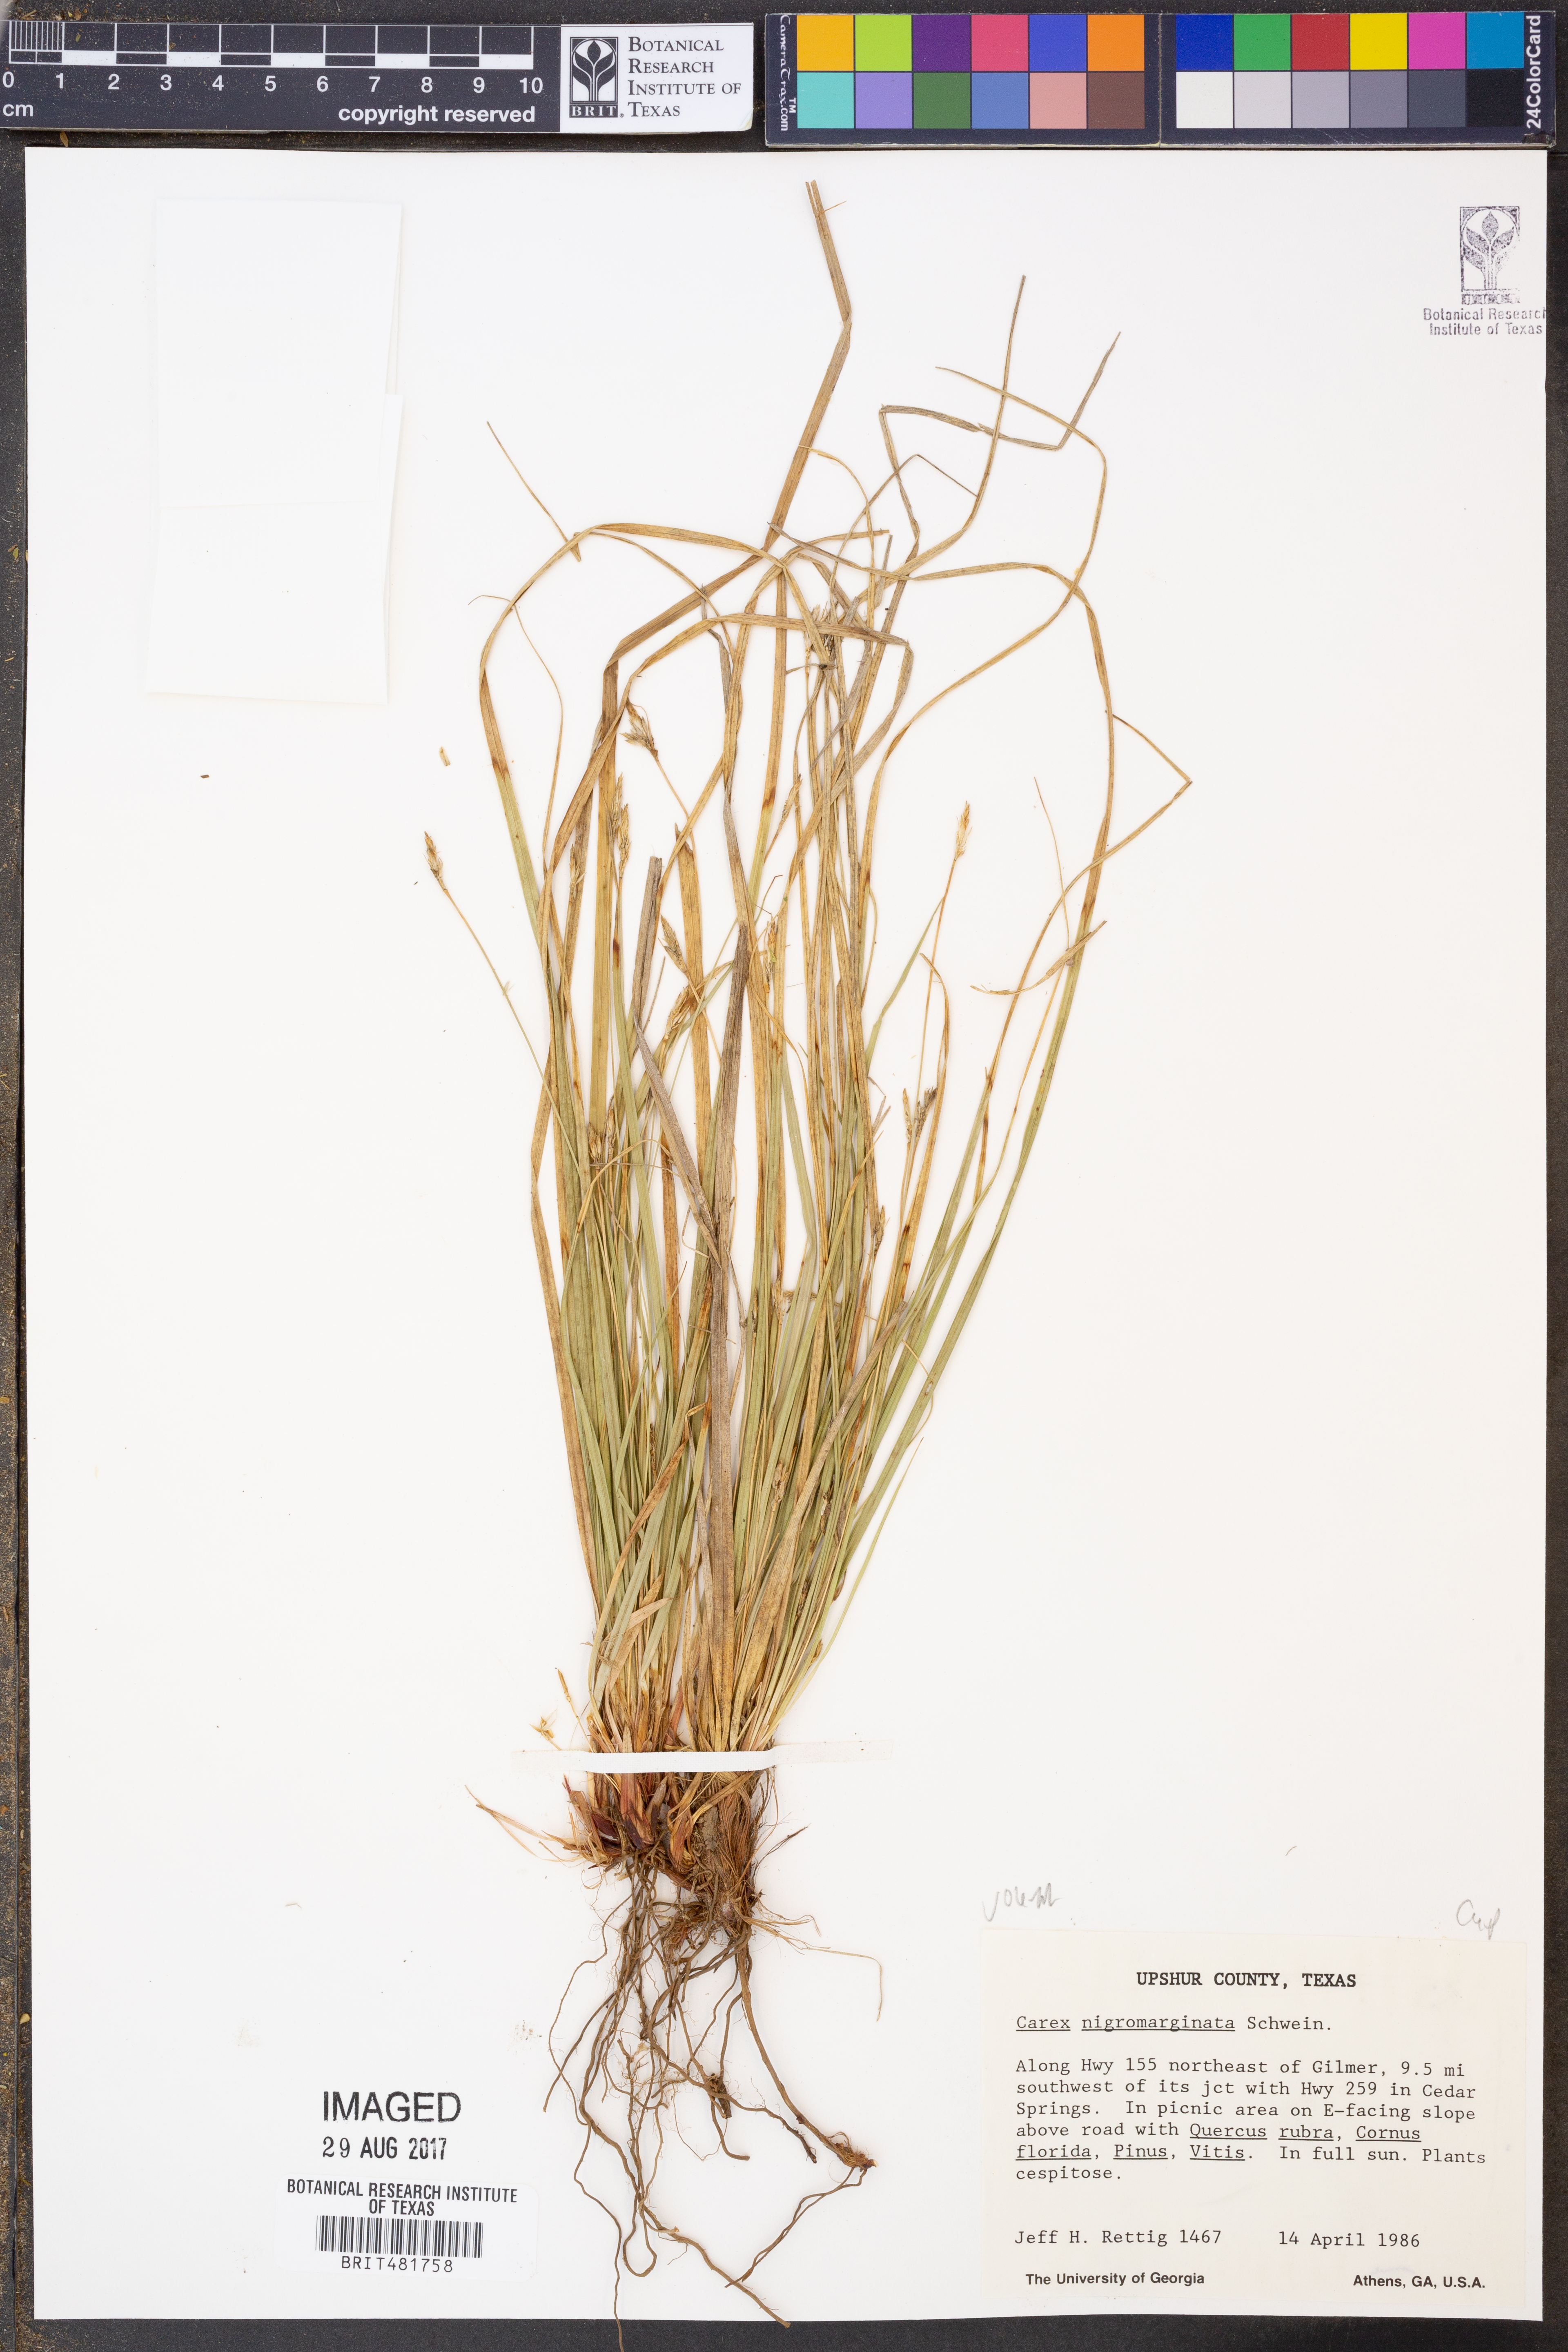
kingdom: Plantae
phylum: Tracheophyta
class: Liliopsida
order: Poales
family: Cyperaceae
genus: Carex
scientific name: Carex nigromarginata
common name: Black-edged sedge
